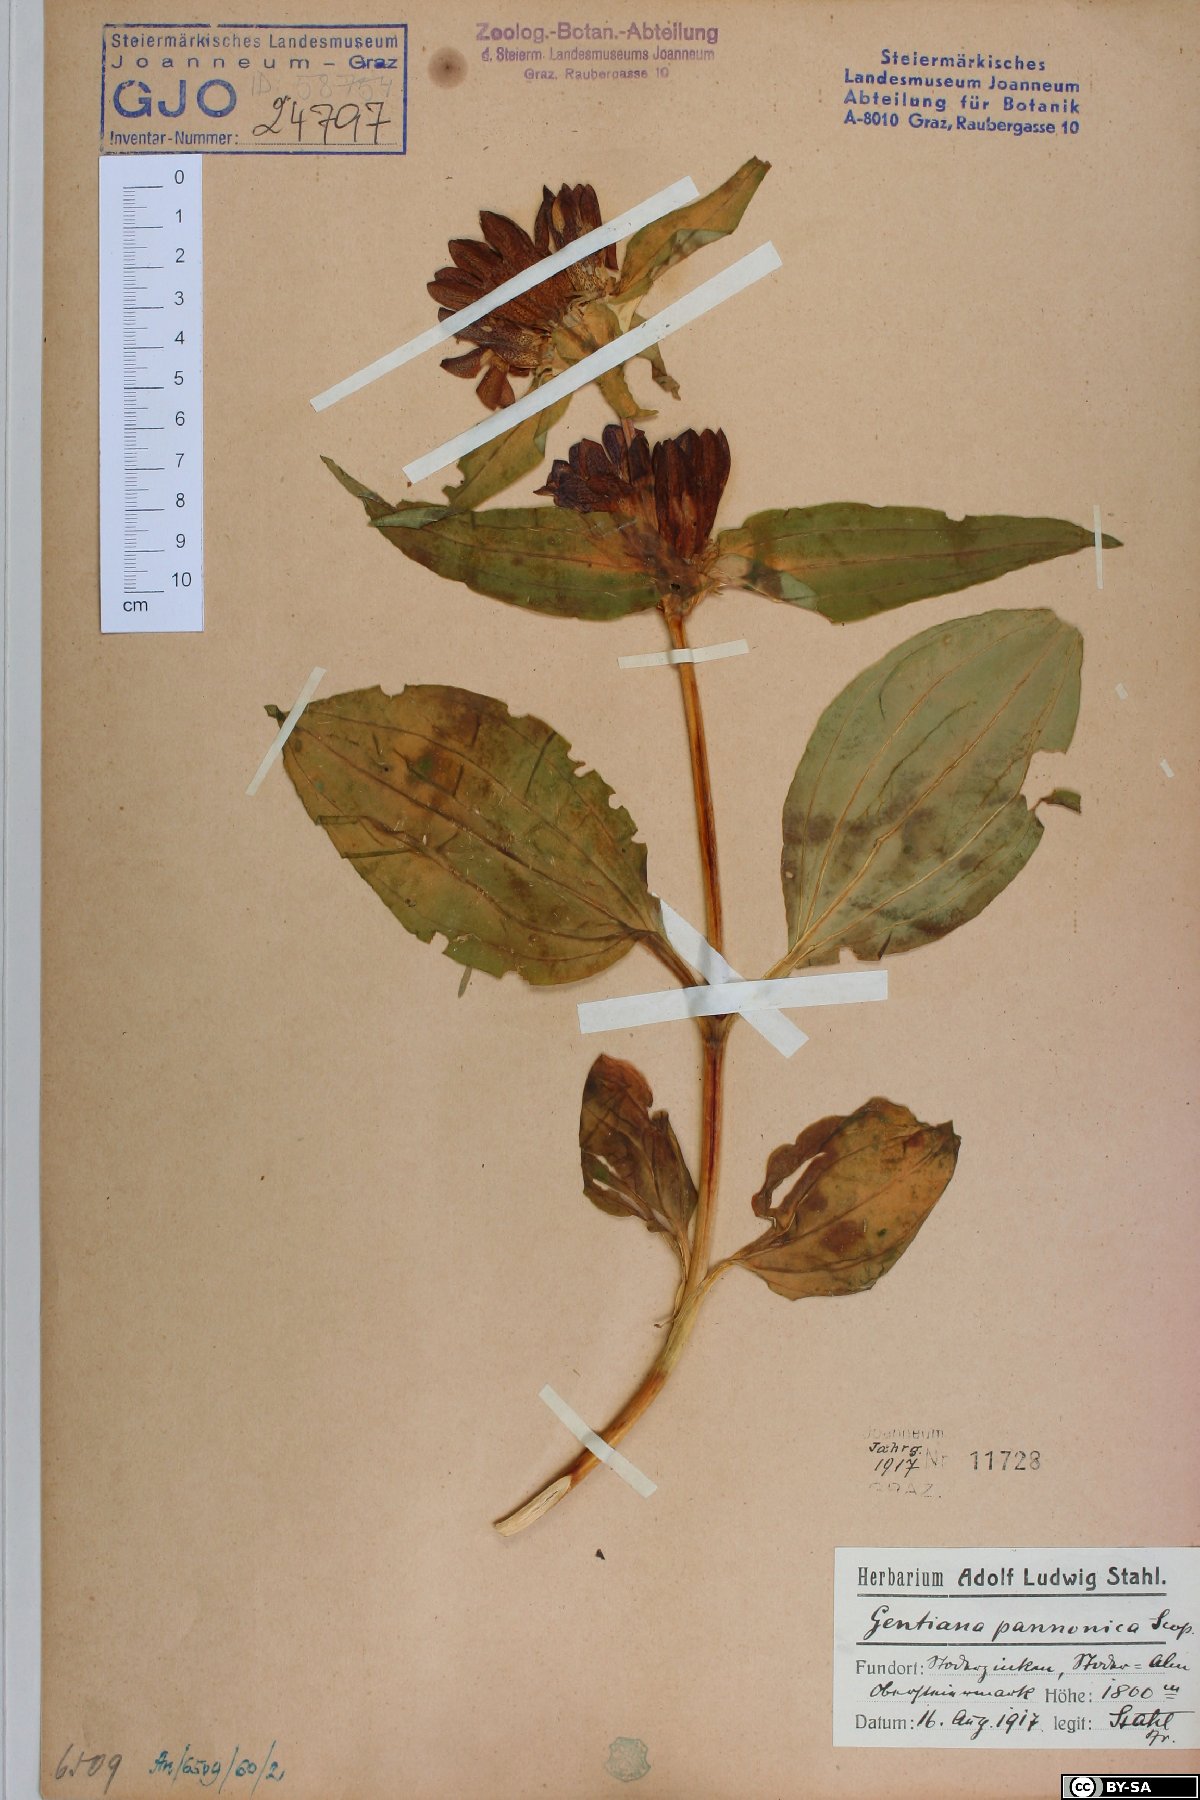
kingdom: Plantae
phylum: Tracheophyta
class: Magnoliopsida
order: Gentianales
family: Gentianaceae
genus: Gentiana
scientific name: Gentiana pannonica
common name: Hungarian gentian
